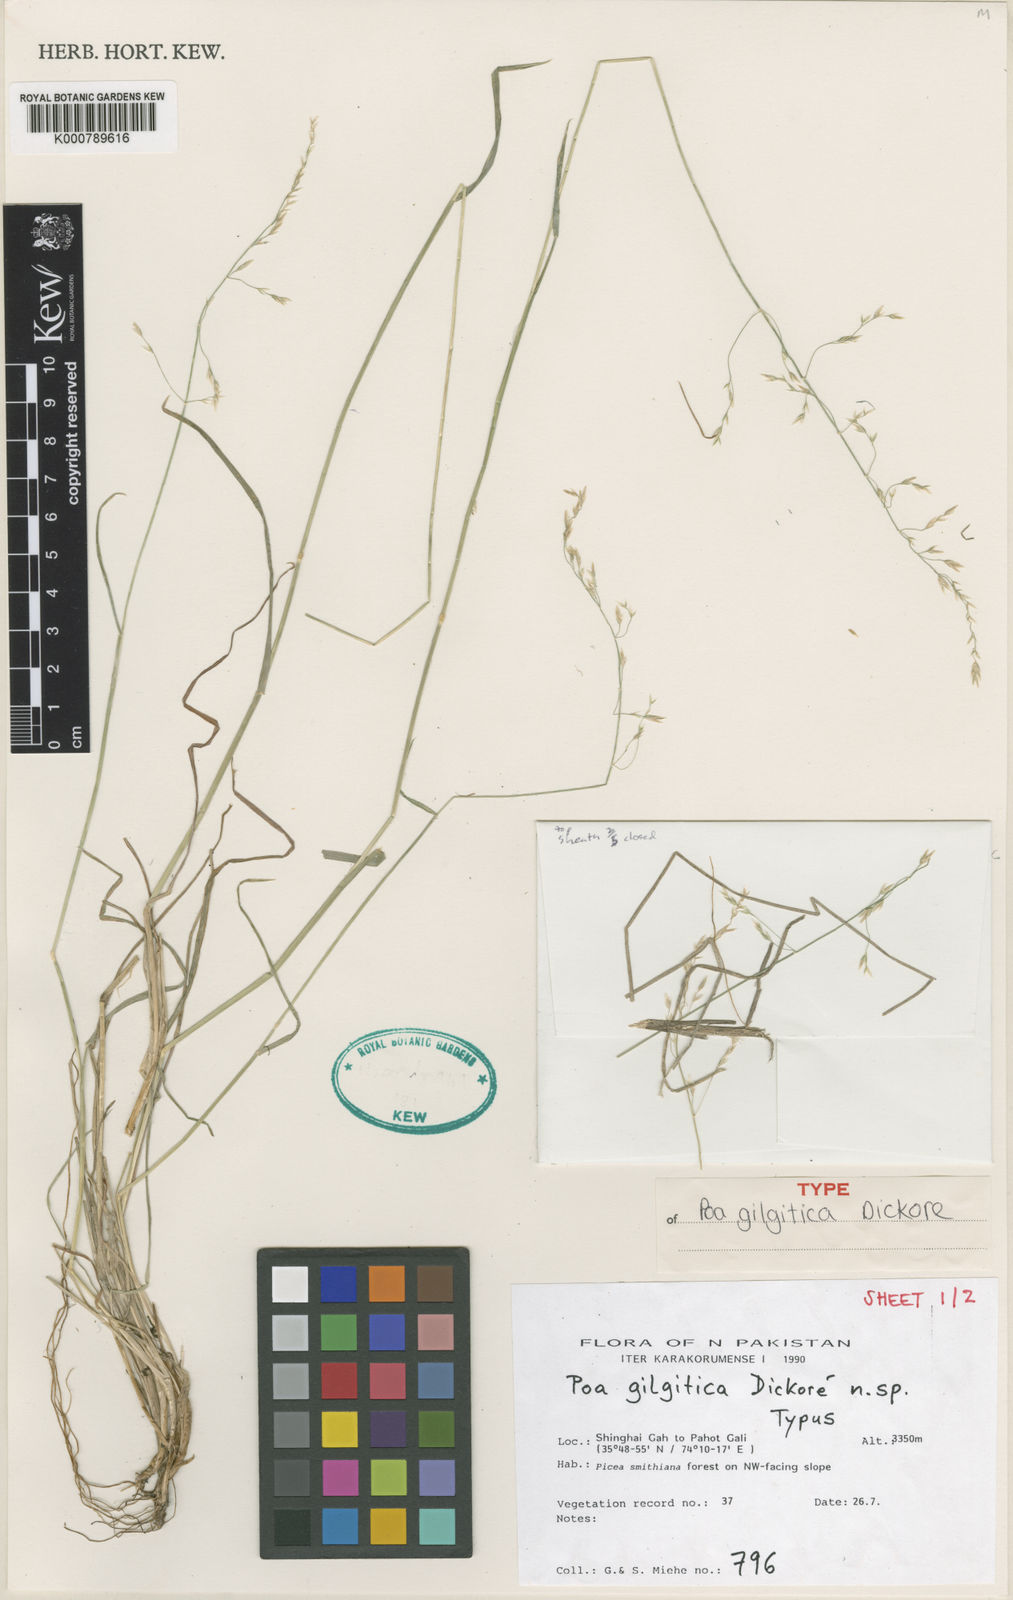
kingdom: Plantae
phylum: Tracheophyta
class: Liliopsida
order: Poales
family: Poaceae
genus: Poa
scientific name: Poa
